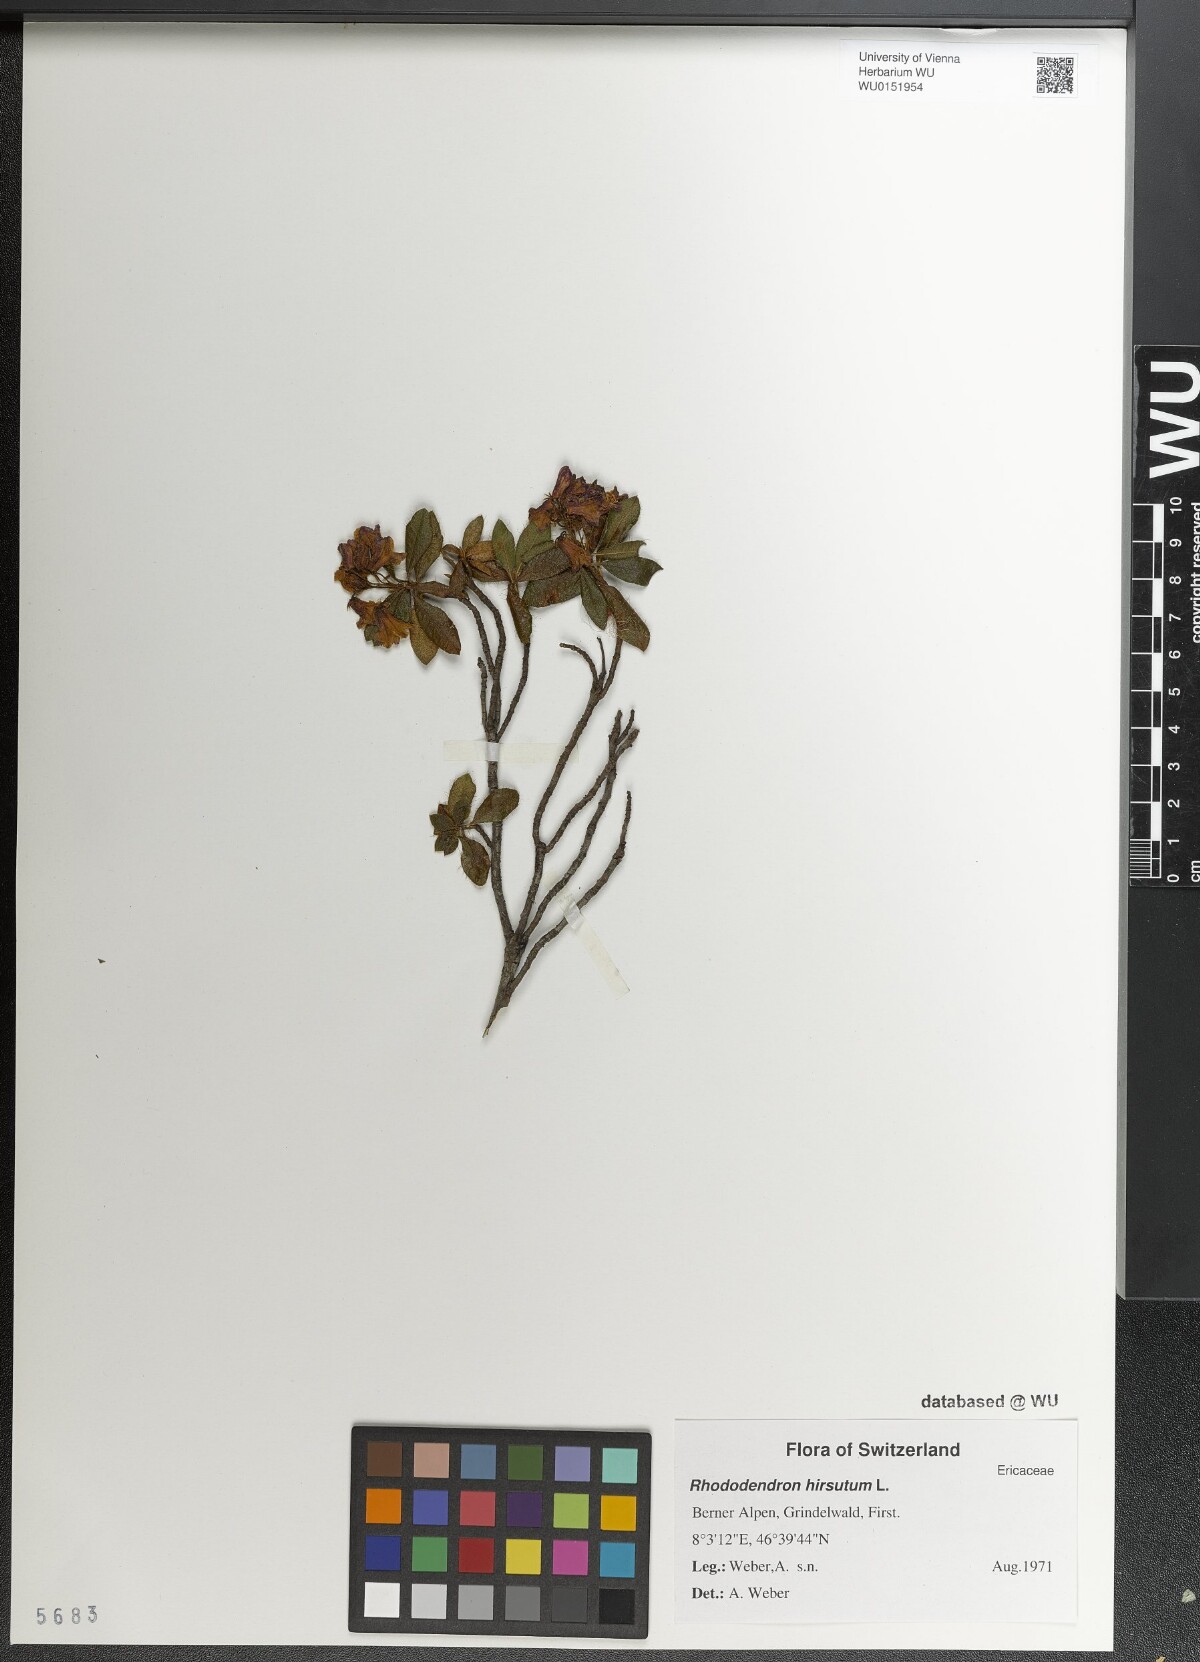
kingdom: Plantae
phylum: Tracheophyta
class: Magnoliopsida
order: Ericales
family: Ericaceae
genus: Rhododendron
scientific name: Rhododendron hirsutum
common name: Hairy alpenrose
